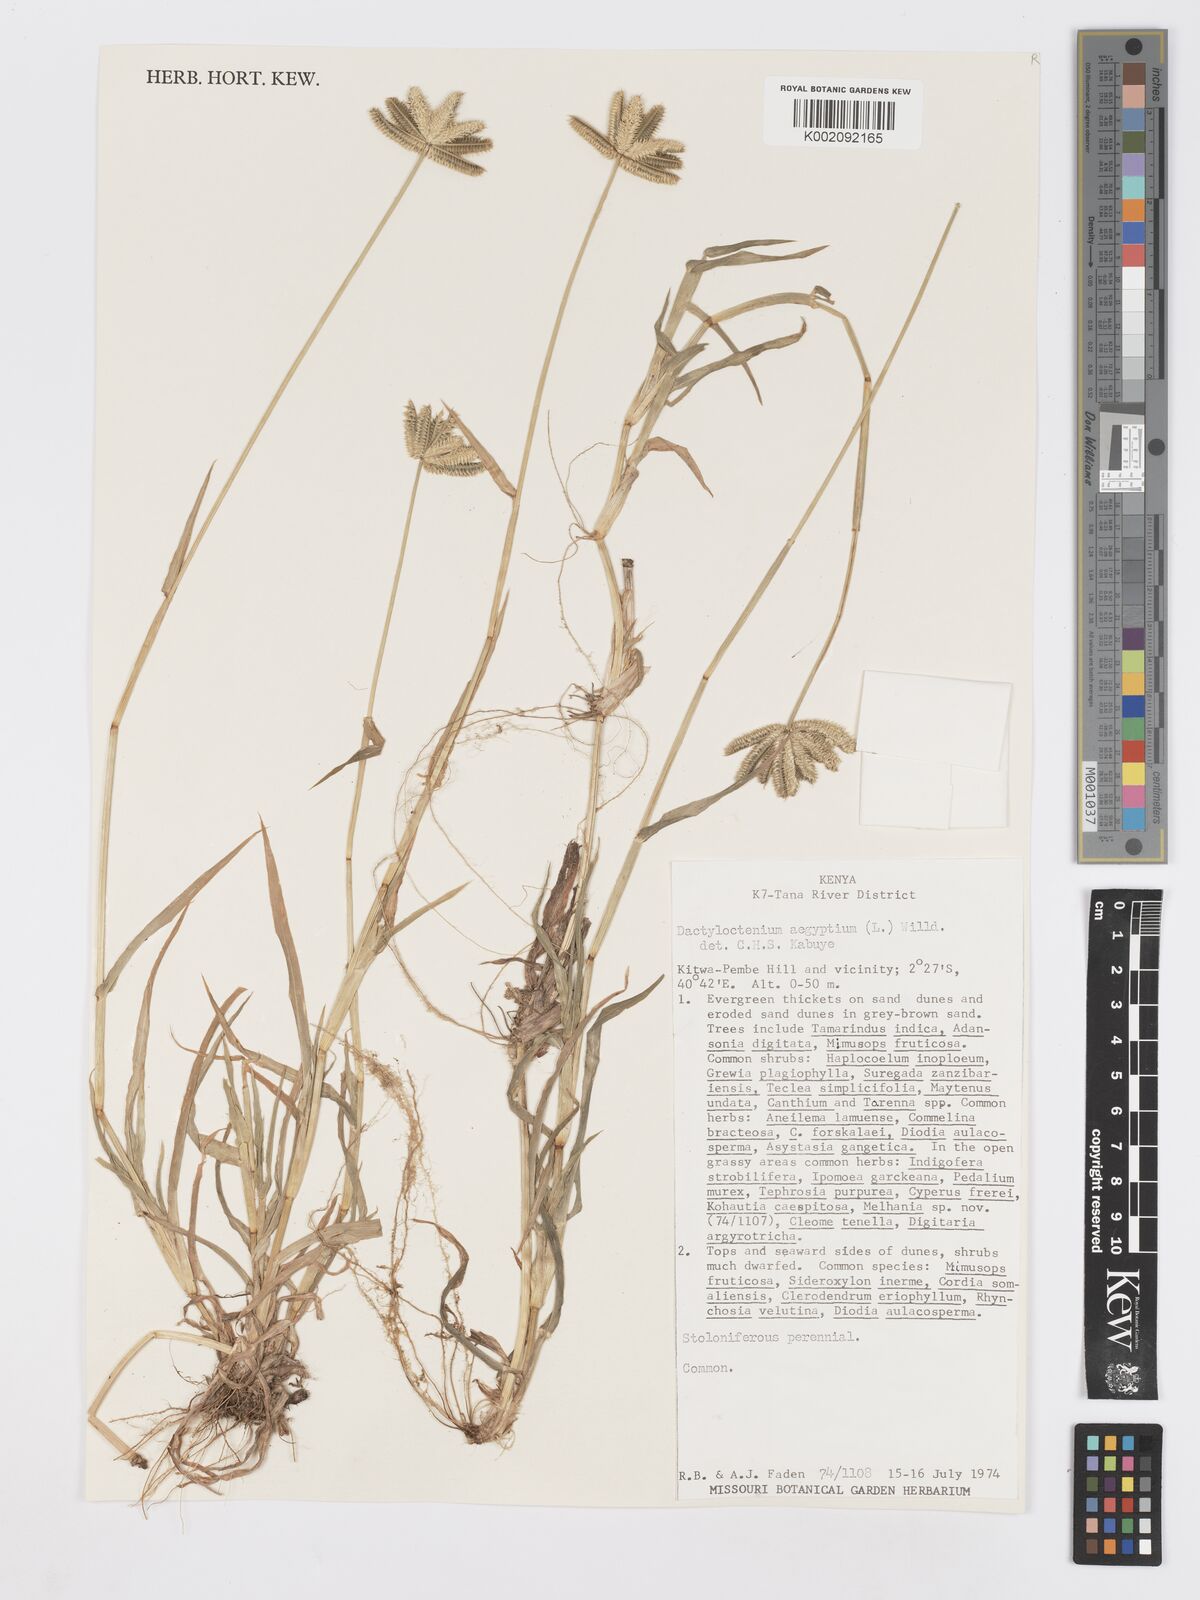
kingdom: Plantae
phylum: Tracheophyta
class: Liliopsida
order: Poales
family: Poaceae
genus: Dactyloctenium
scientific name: Dactyloctenium aegyptium
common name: Egyptian grass
